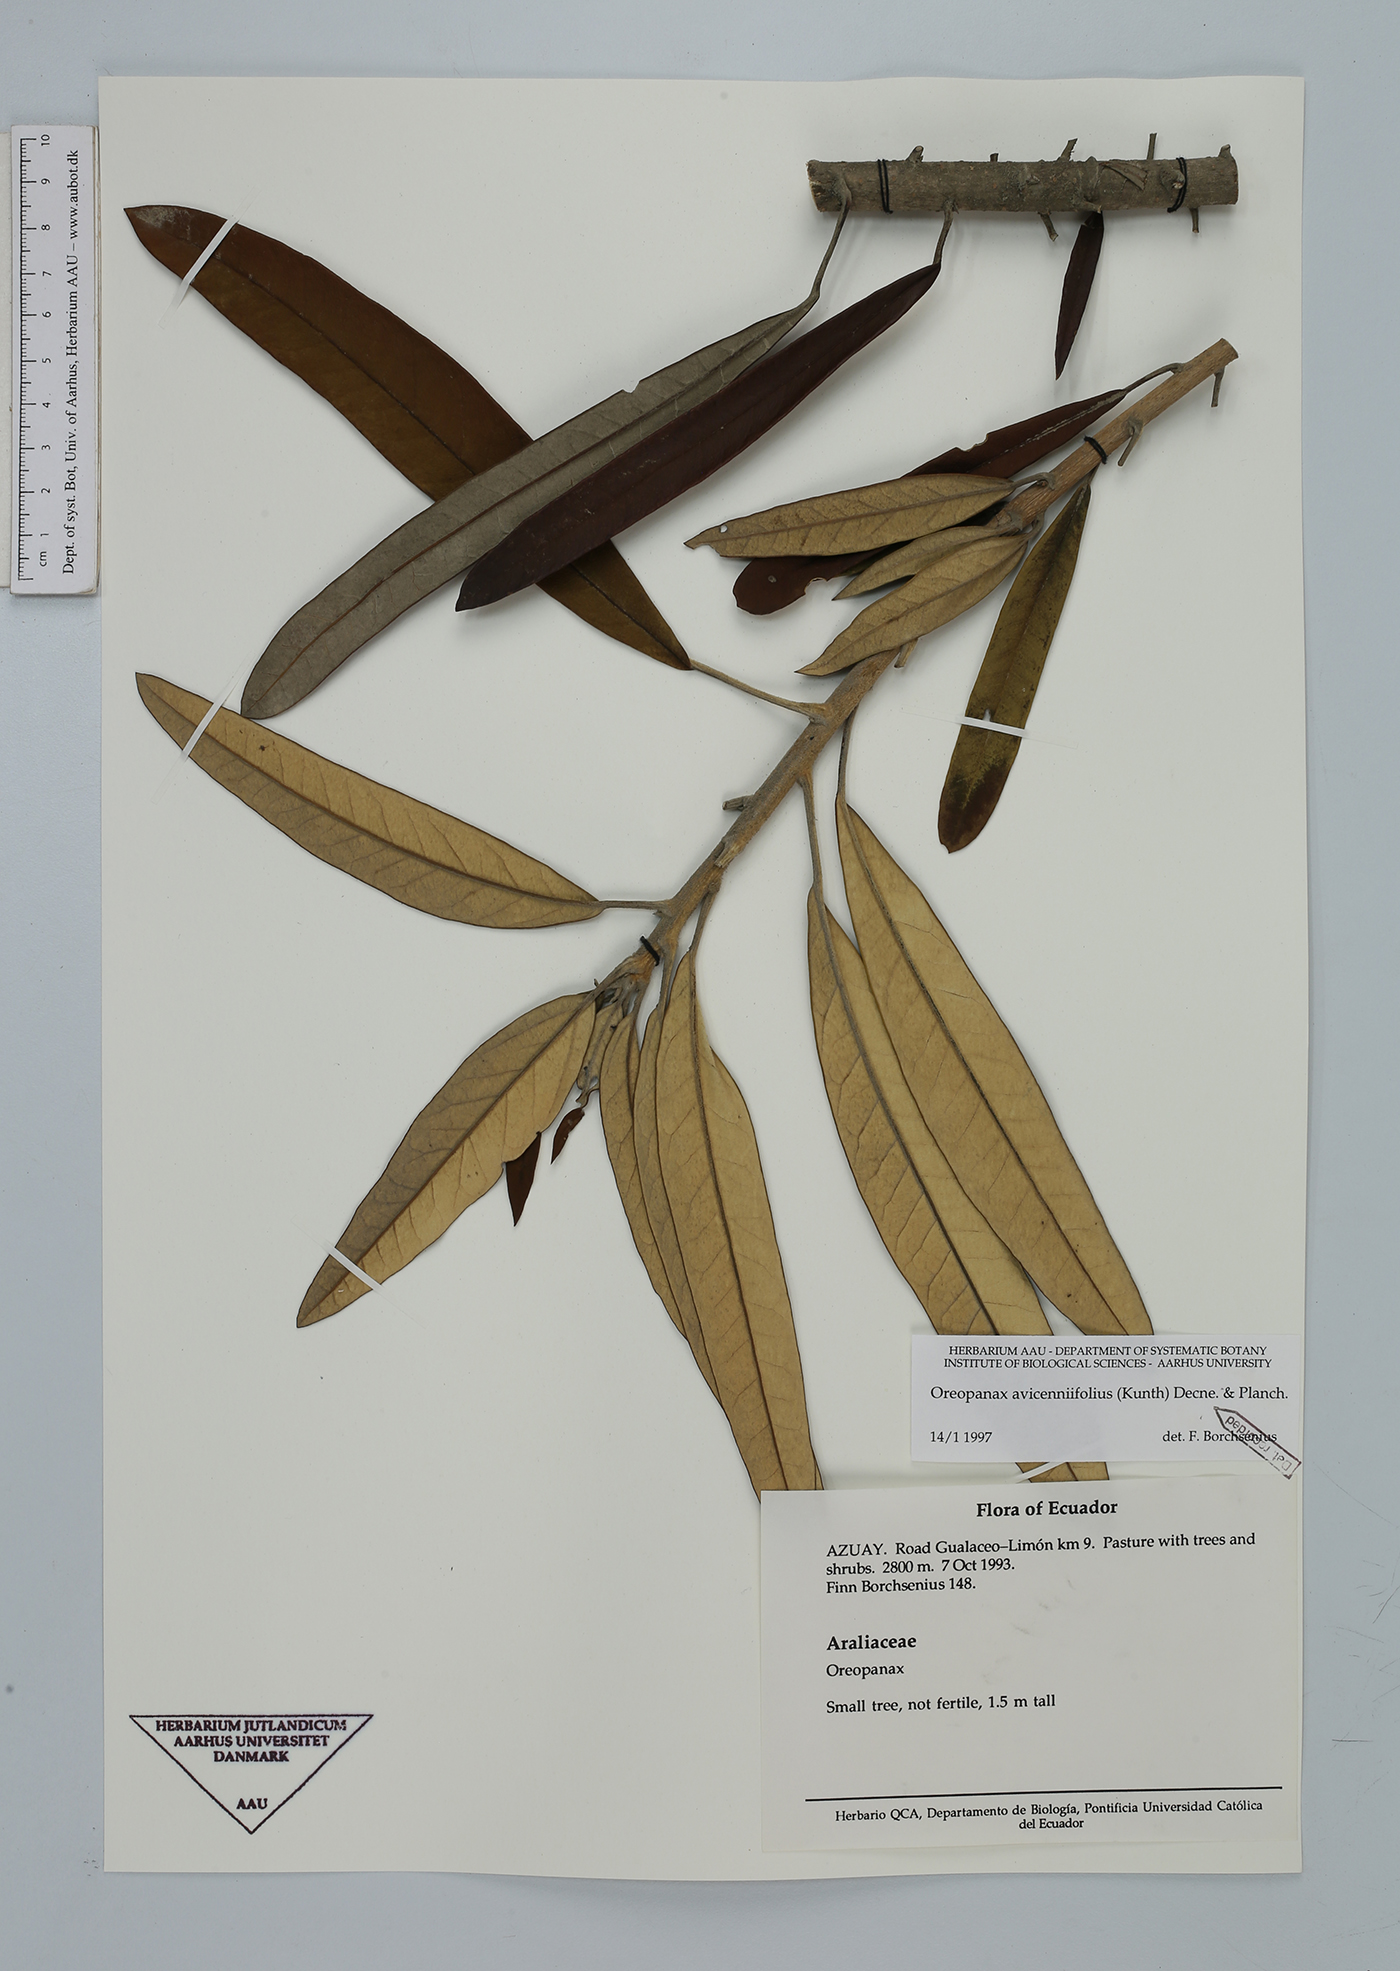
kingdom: Plantae
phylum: Tracheophyta
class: Magnoliopsida
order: Apiales
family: Araliaceae
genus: Oreopanax
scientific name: Oreopanax avicenniifolius
